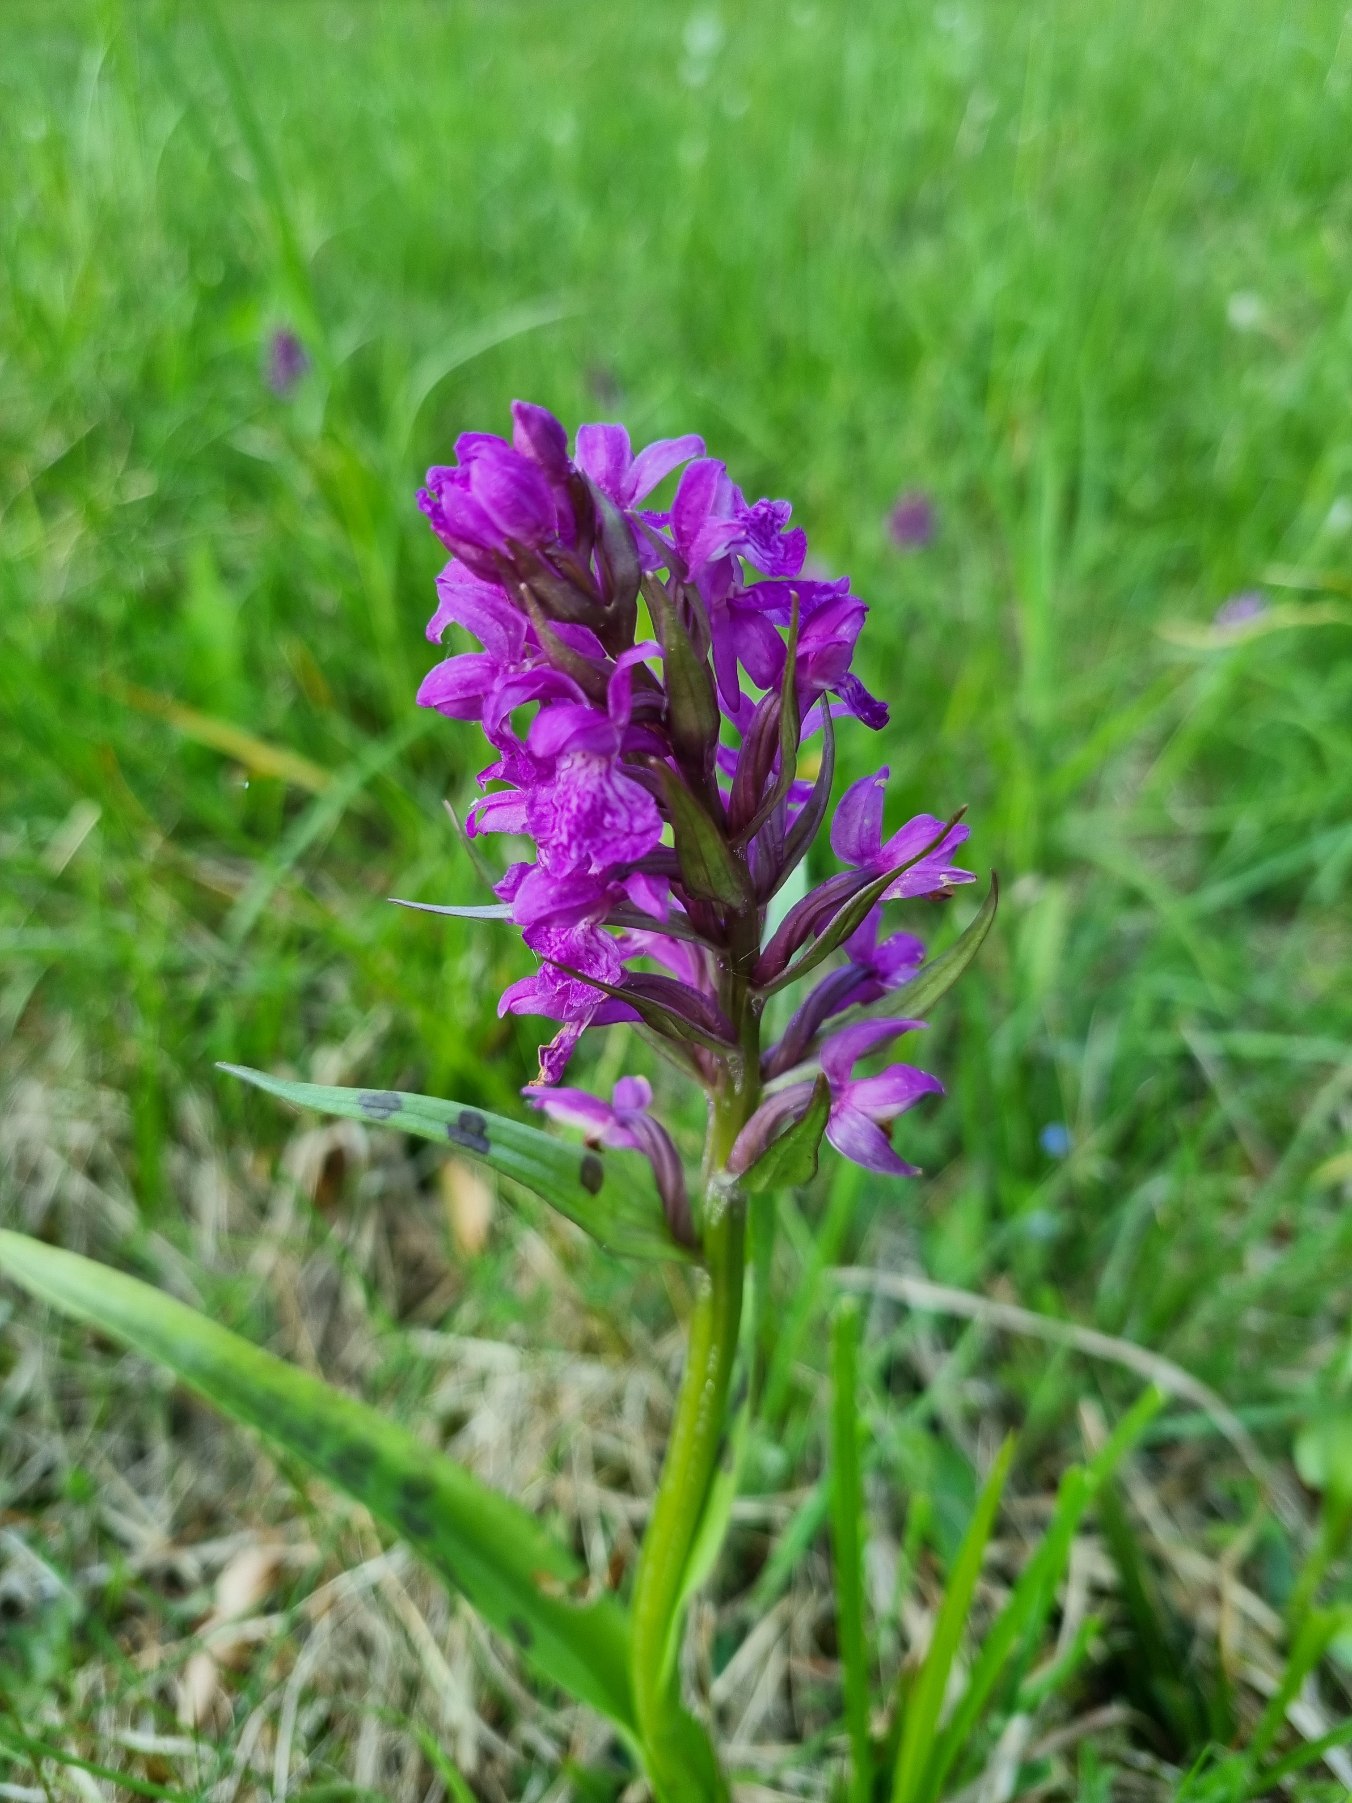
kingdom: Plantae
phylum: Tracheophyta
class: Liliopsida
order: Asparagales
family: Orchidaceae
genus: Dactylorhiza
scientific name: Dactylorhiza majalis
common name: Maj-gøgeurt
